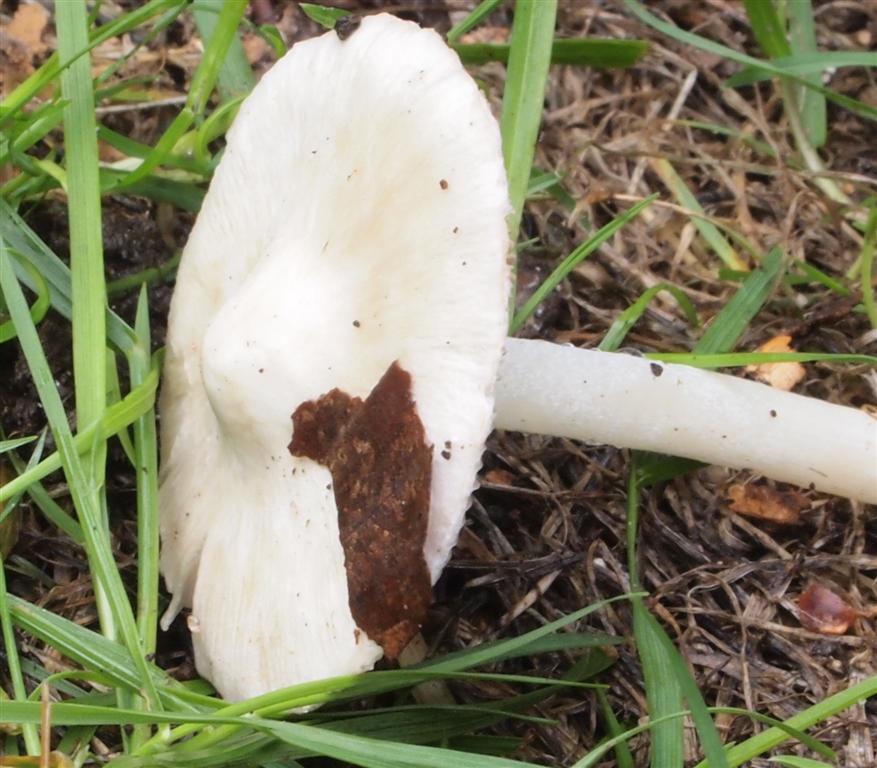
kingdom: Fungi
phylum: Basidiomycota
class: Agaricomycetes
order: Agaricales
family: Inocybaceae
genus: Inocybe
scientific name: Inocybe
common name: almindelig trævlhat
